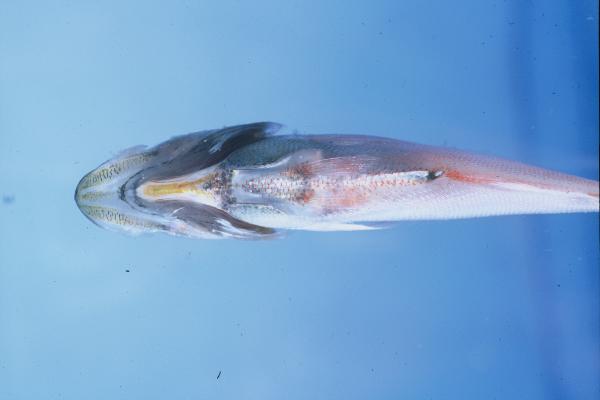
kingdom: Animalia
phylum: Chordata
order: Perciformes
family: Pempheridae
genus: Parapriacanthus
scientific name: Parapriacanthus punctulatus
